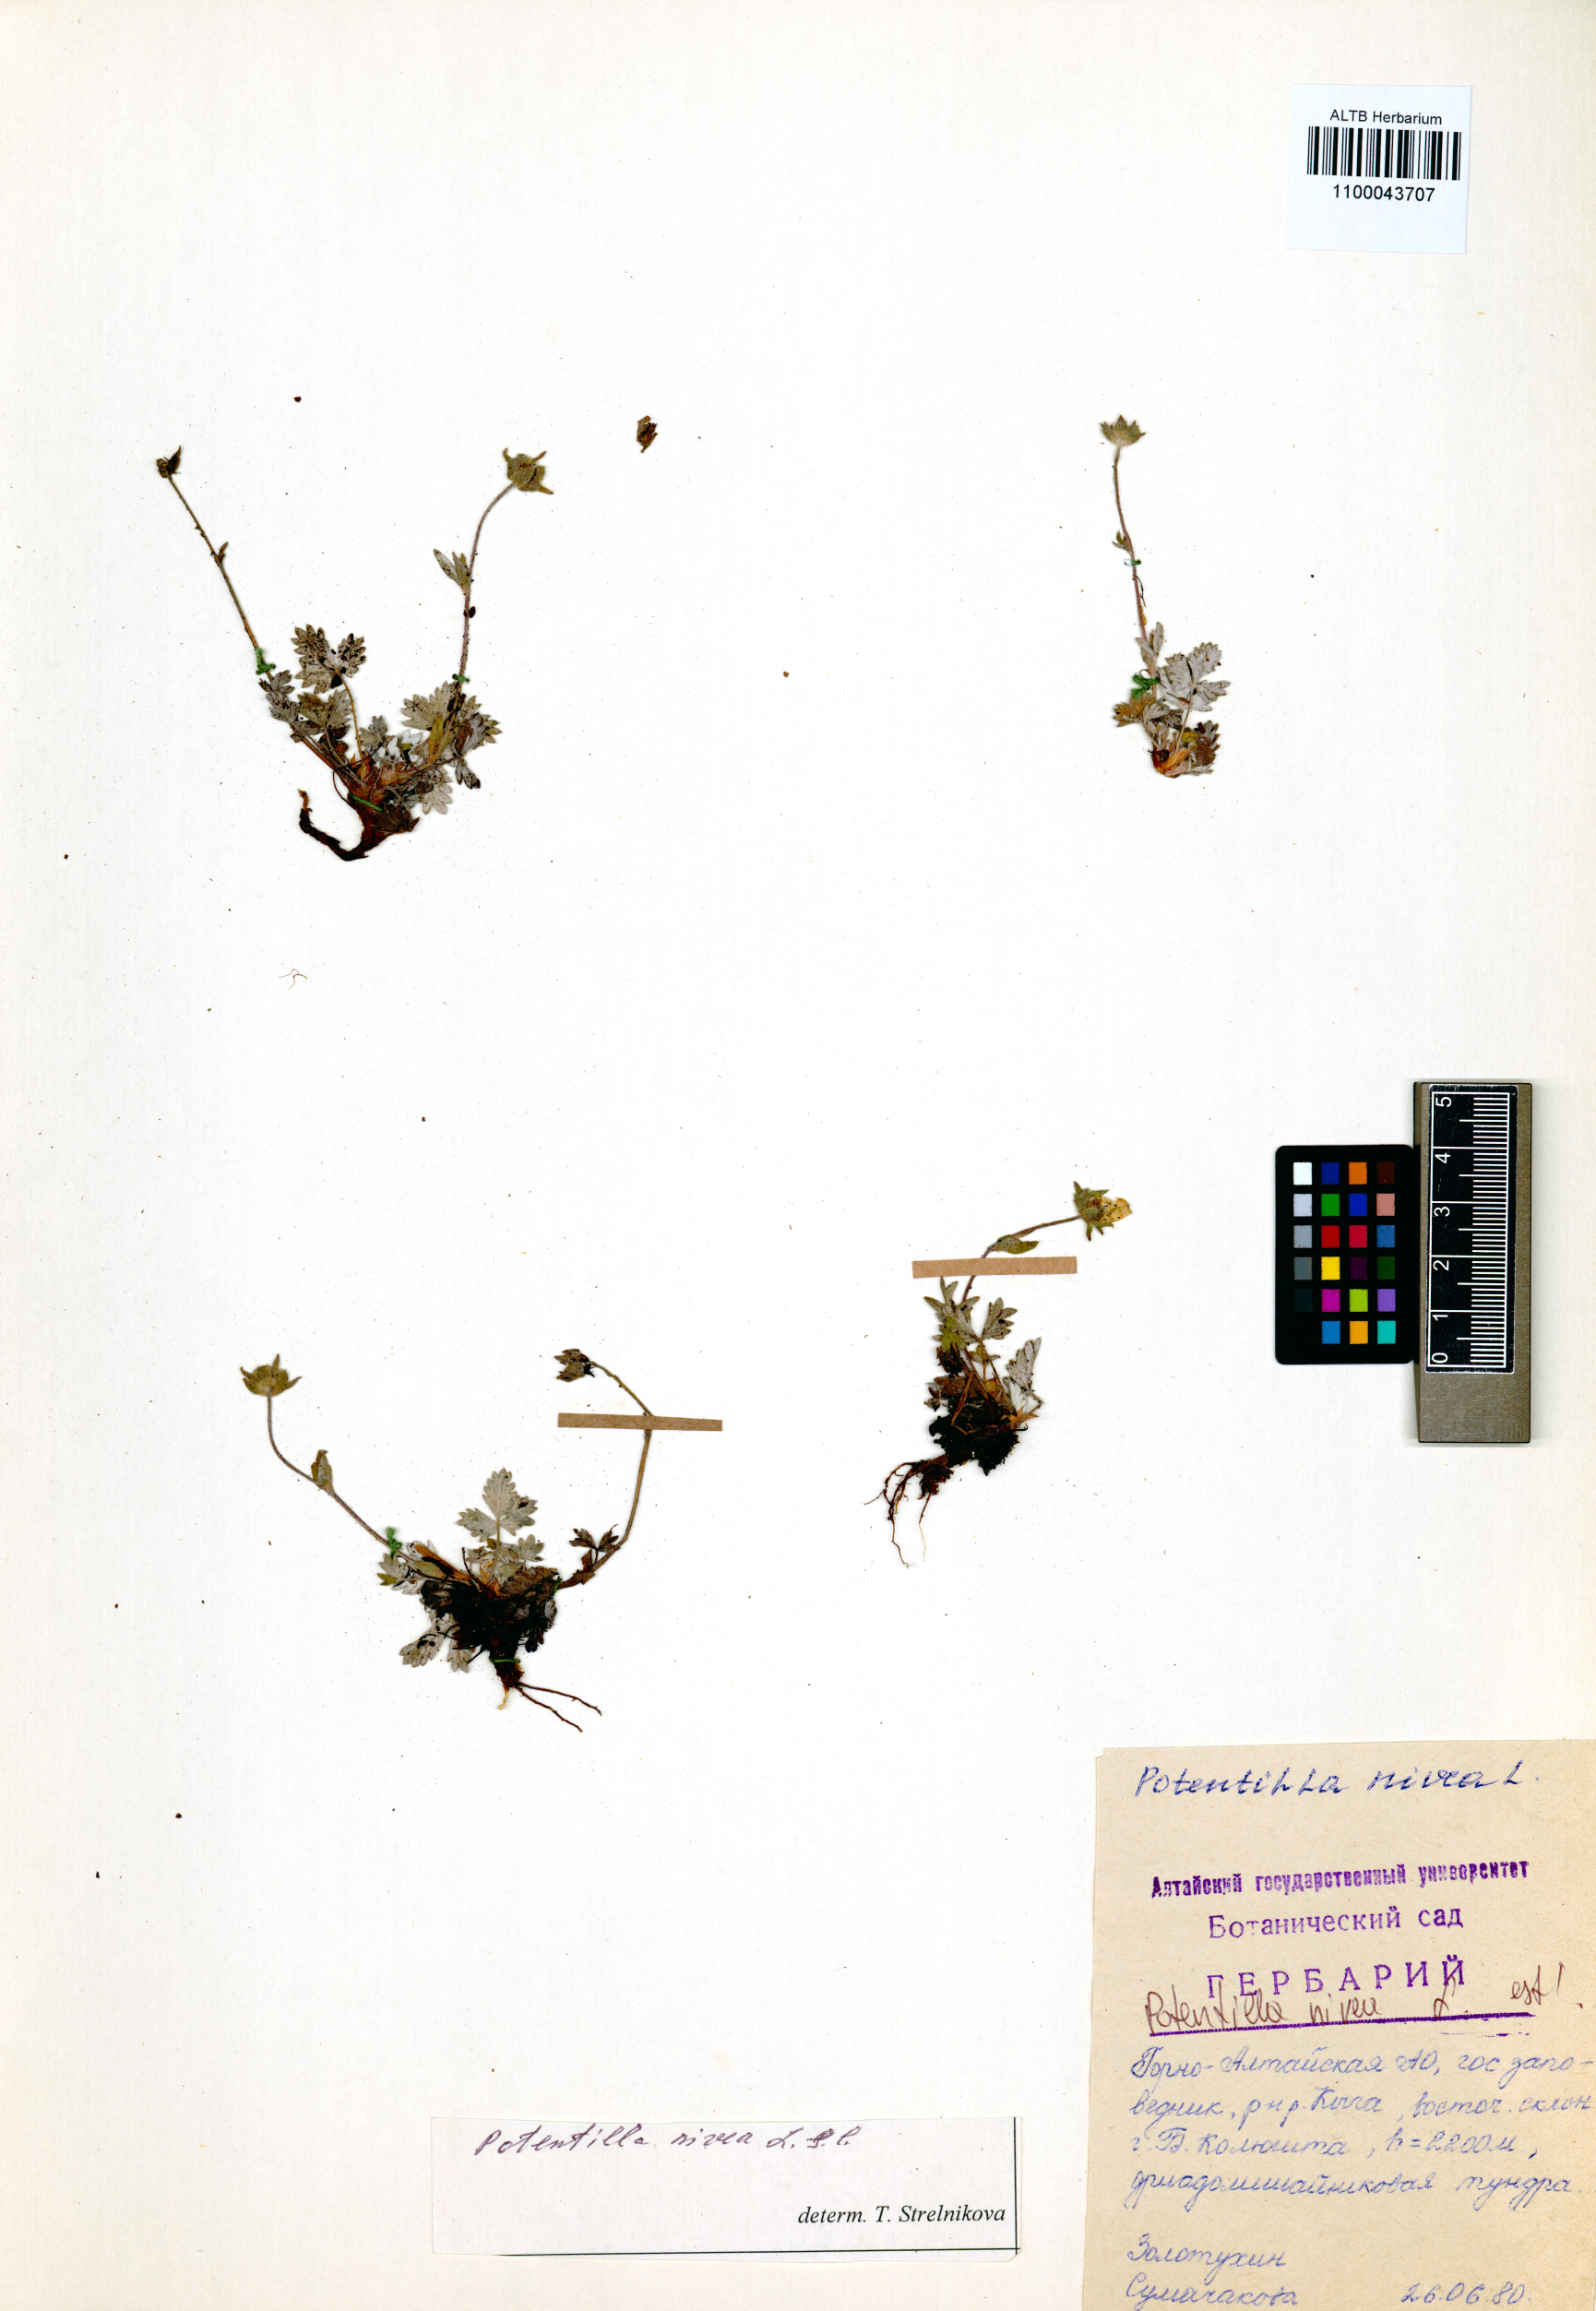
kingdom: Plantae
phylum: Tracheophyta
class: Magnoliopsida
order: Rosales
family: Rosaceae
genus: Potentilla
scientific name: Potentilla nivea
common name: Snow cinquefoil
